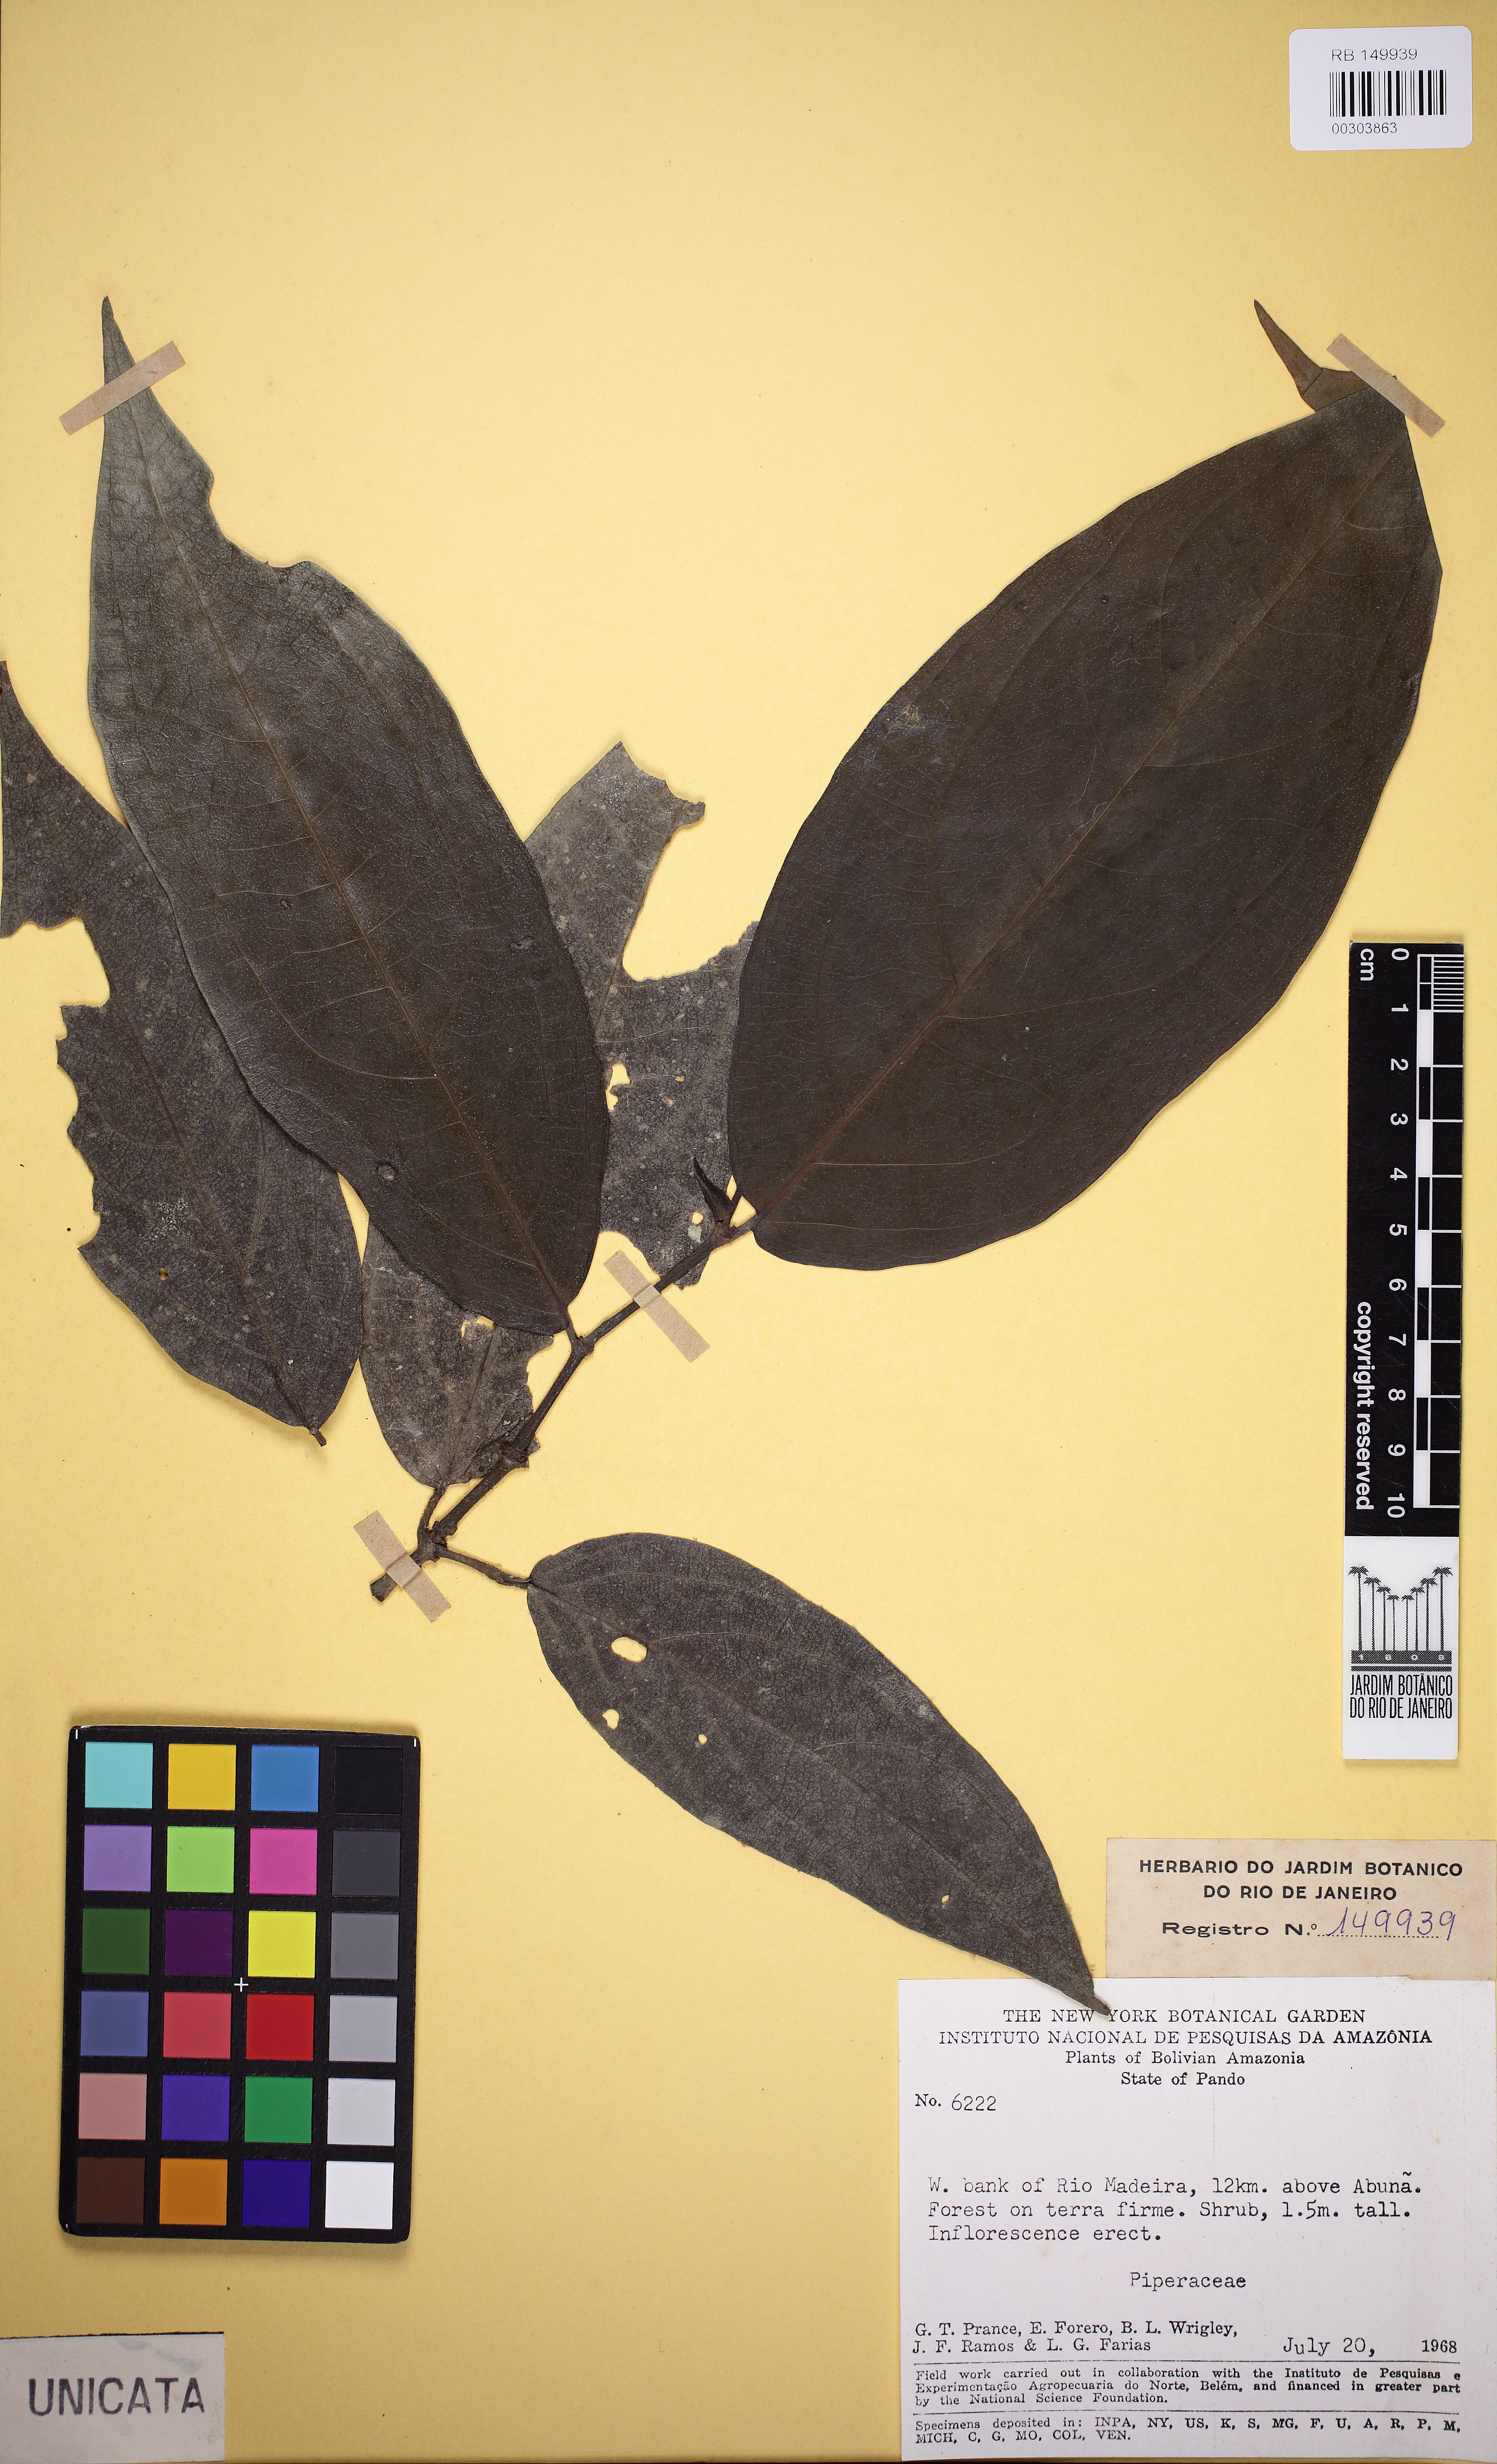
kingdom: Plantae
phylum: Tracheophyta
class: Magnoliopsida
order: Piperales
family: Piperaceae
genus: Piper
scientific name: Piper hostmannianum
